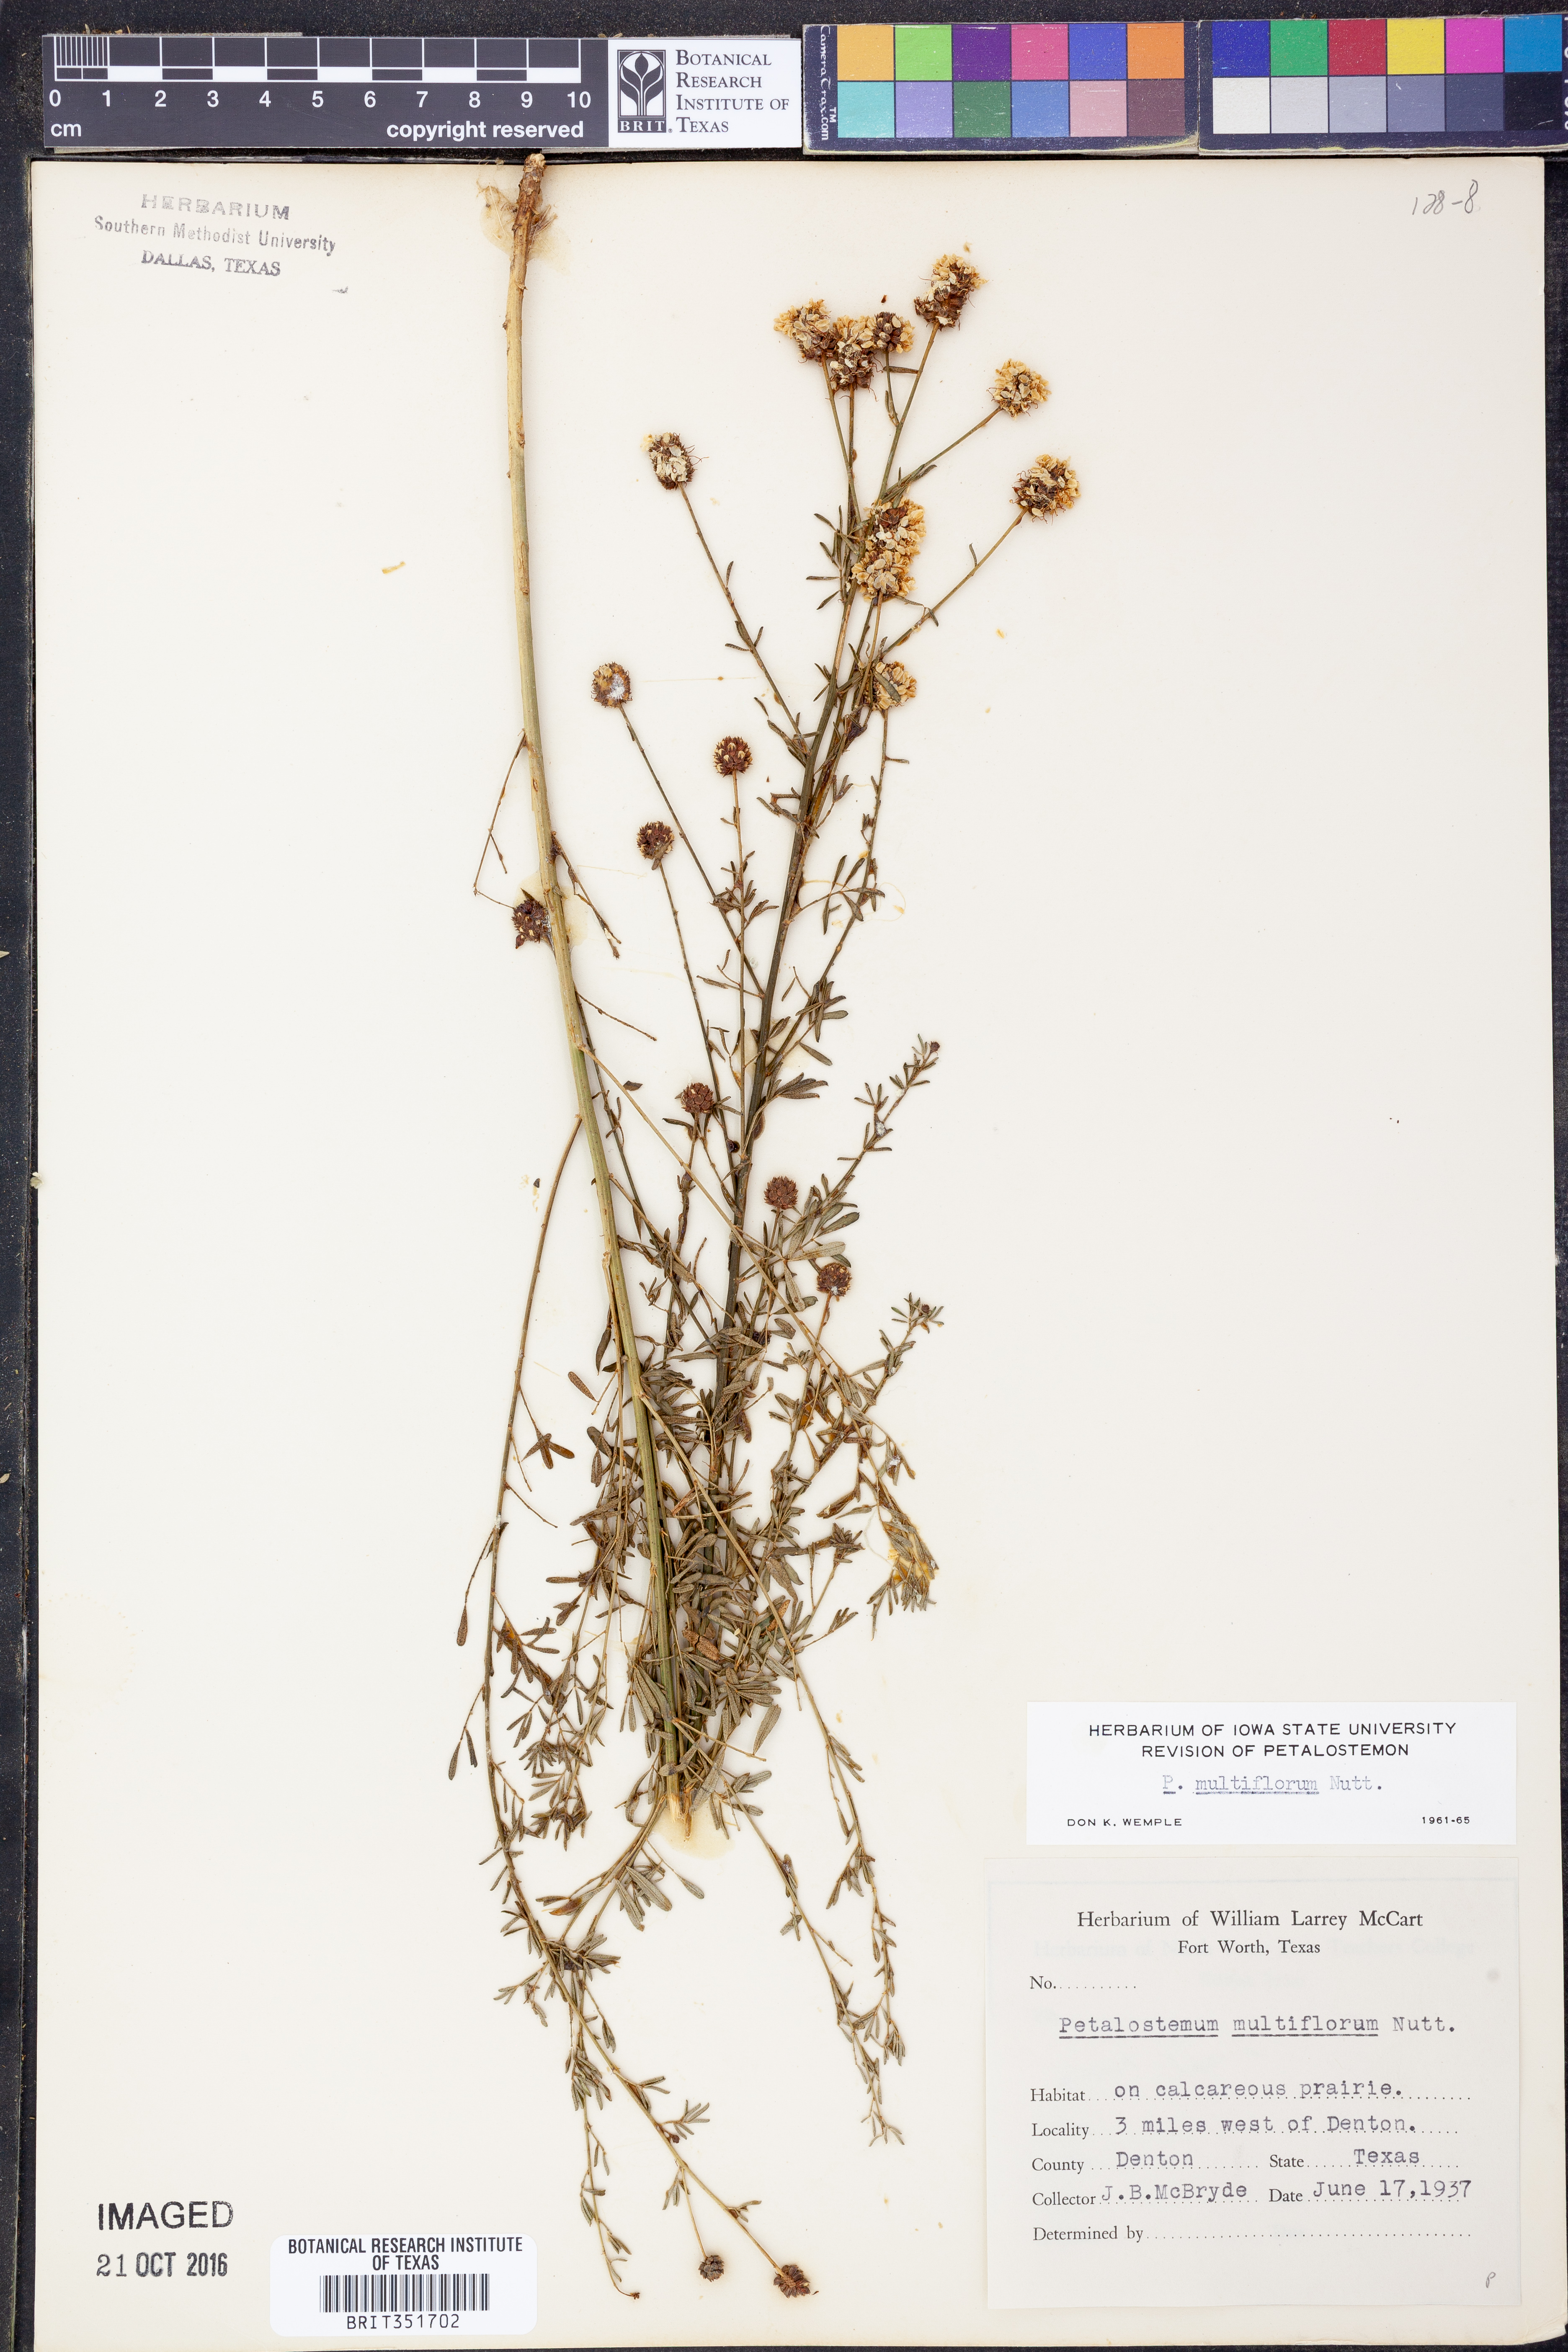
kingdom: Plantae
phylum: Tracheophyta
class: Magnoliopsida
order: Fabales
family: Fabaceae
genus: Dalea
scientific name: Dalea multiflora
